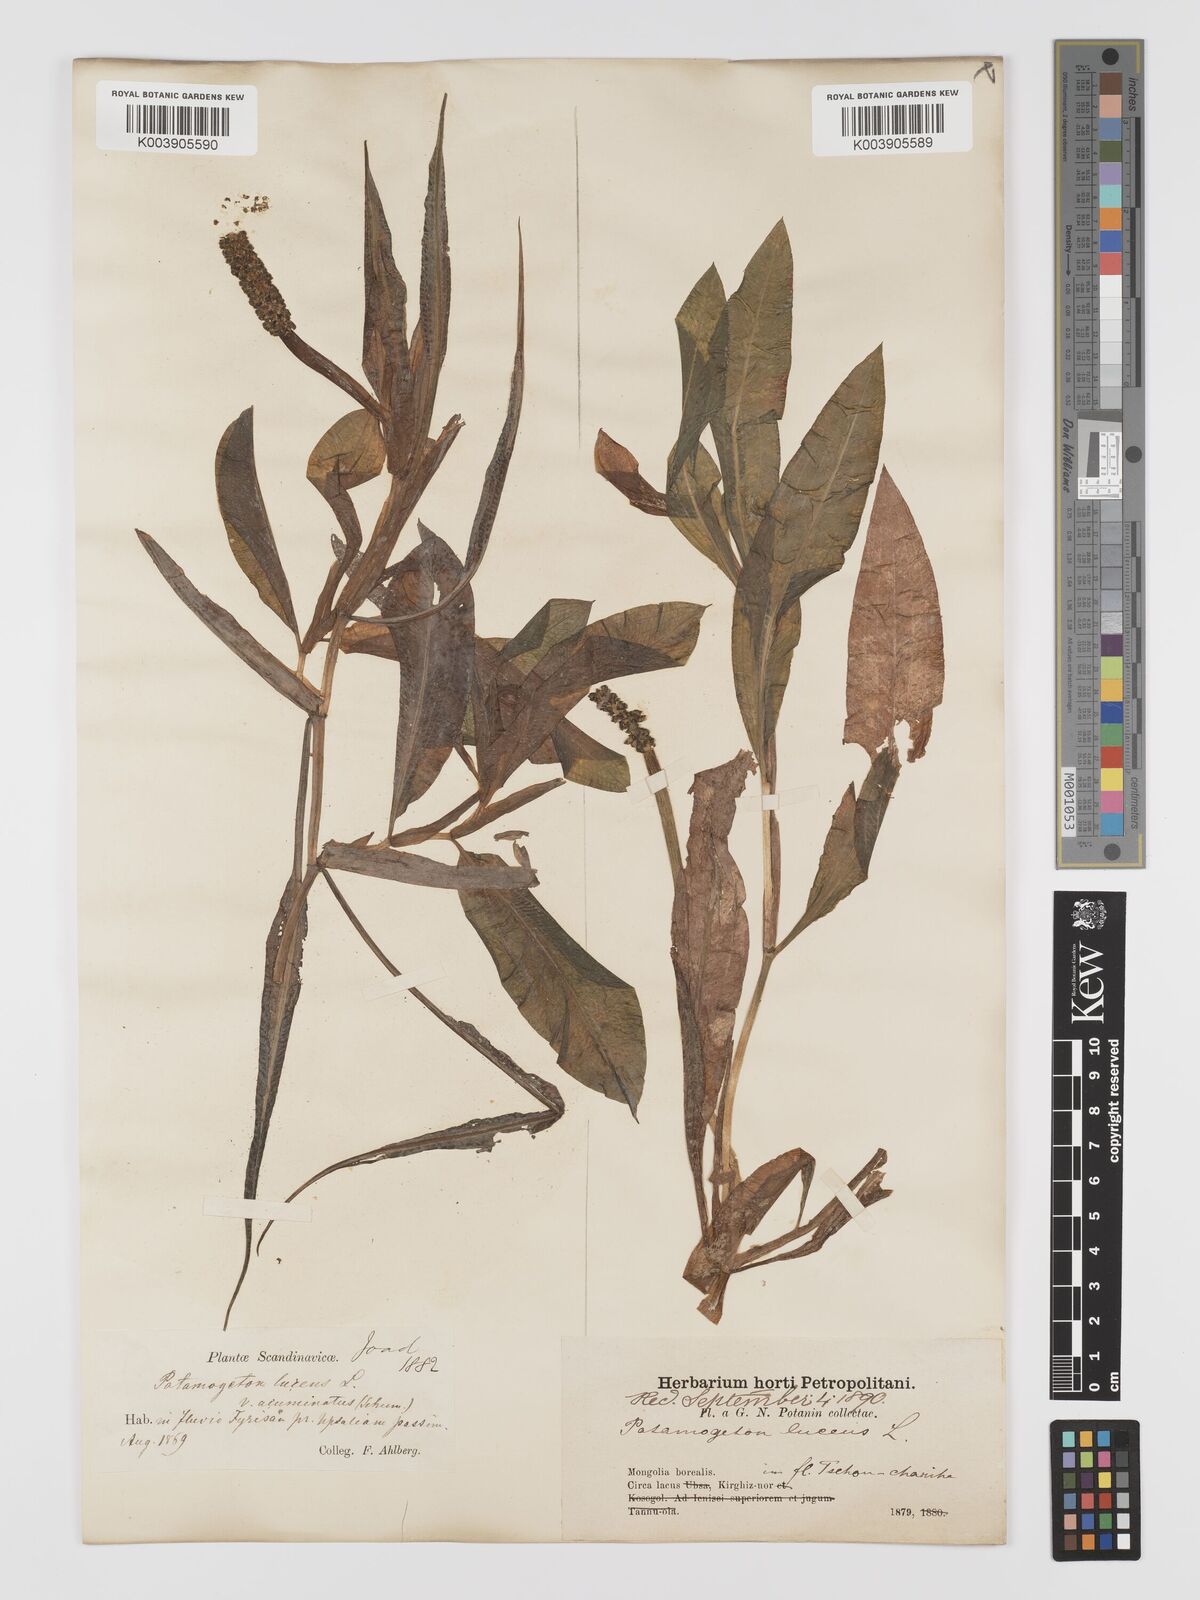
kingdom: Plantae
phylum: Tracheophyta
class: Liliopsida
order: Alismatales
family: Potamogetonaceae
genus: Potamogeton
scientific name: Potamogeton lucens
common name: Shining pondweed
